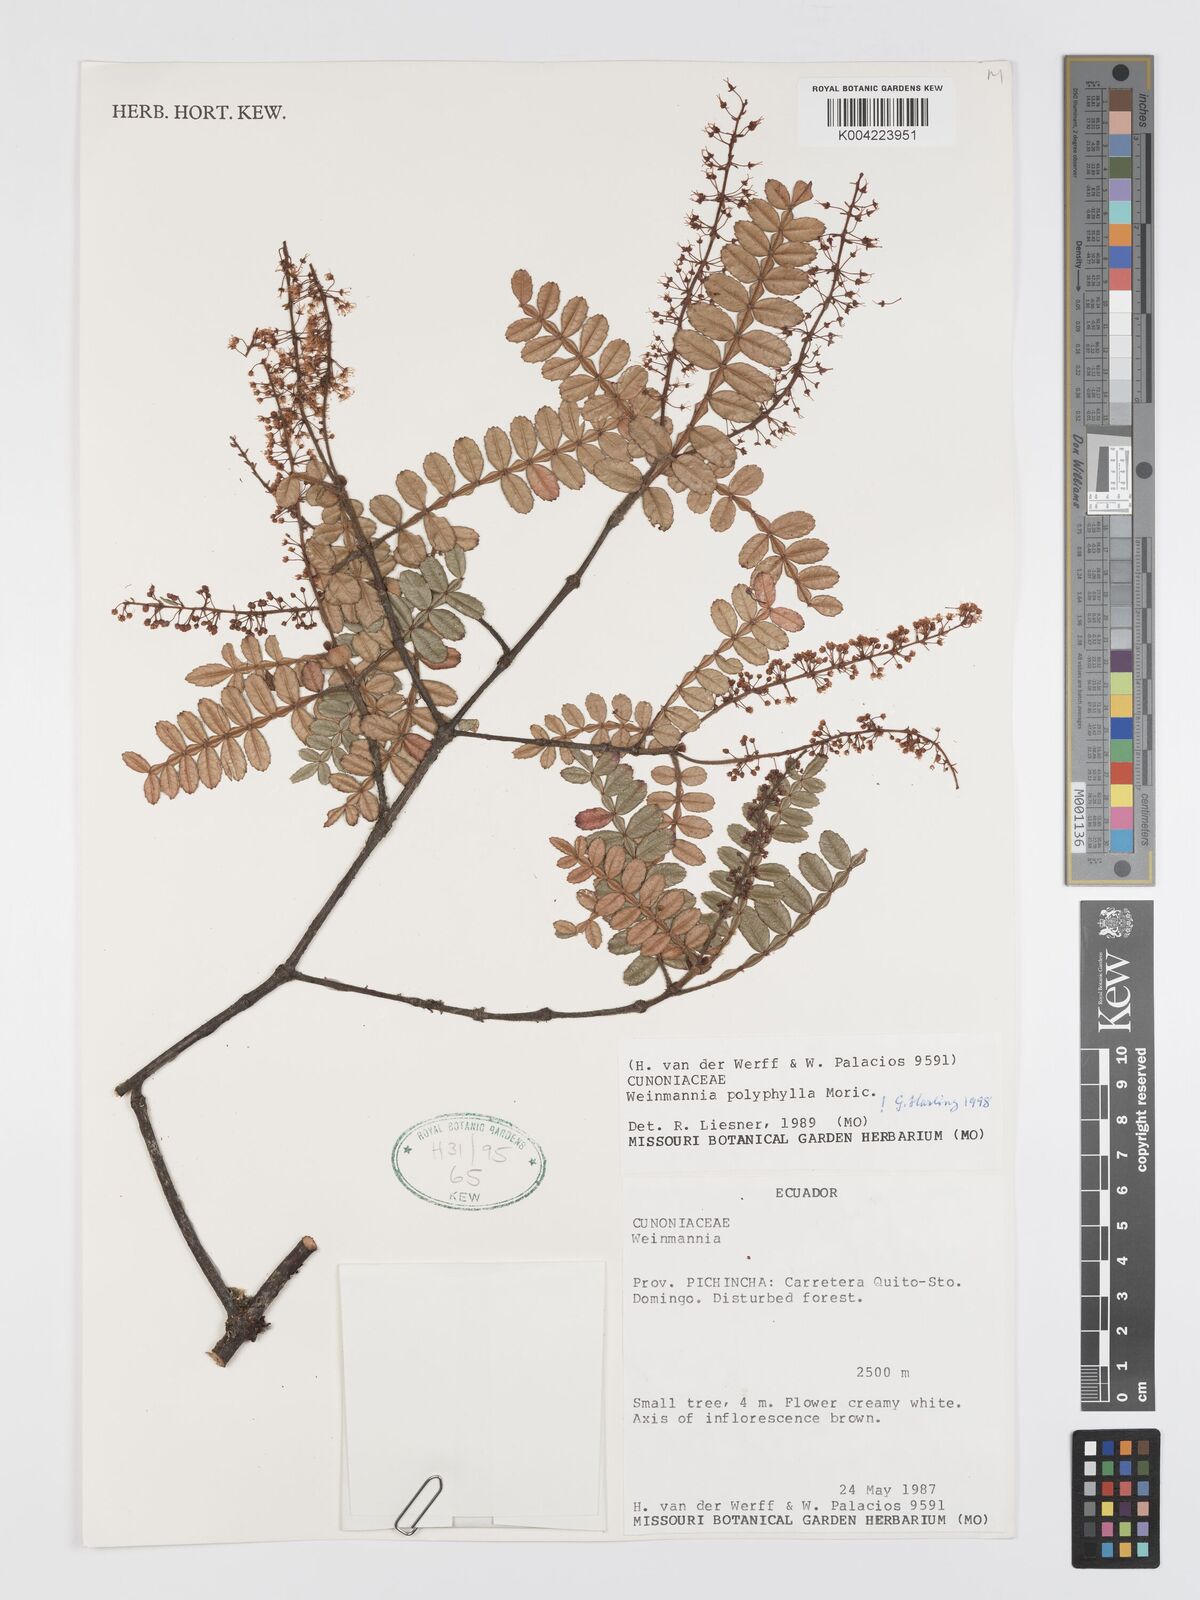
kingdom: Plantae
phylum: Tracheophyta
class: Magnoliopsida
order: Oxalidales
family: Cunoniaceae
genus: Weinmannia
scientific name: Weinmannia polyphylla
